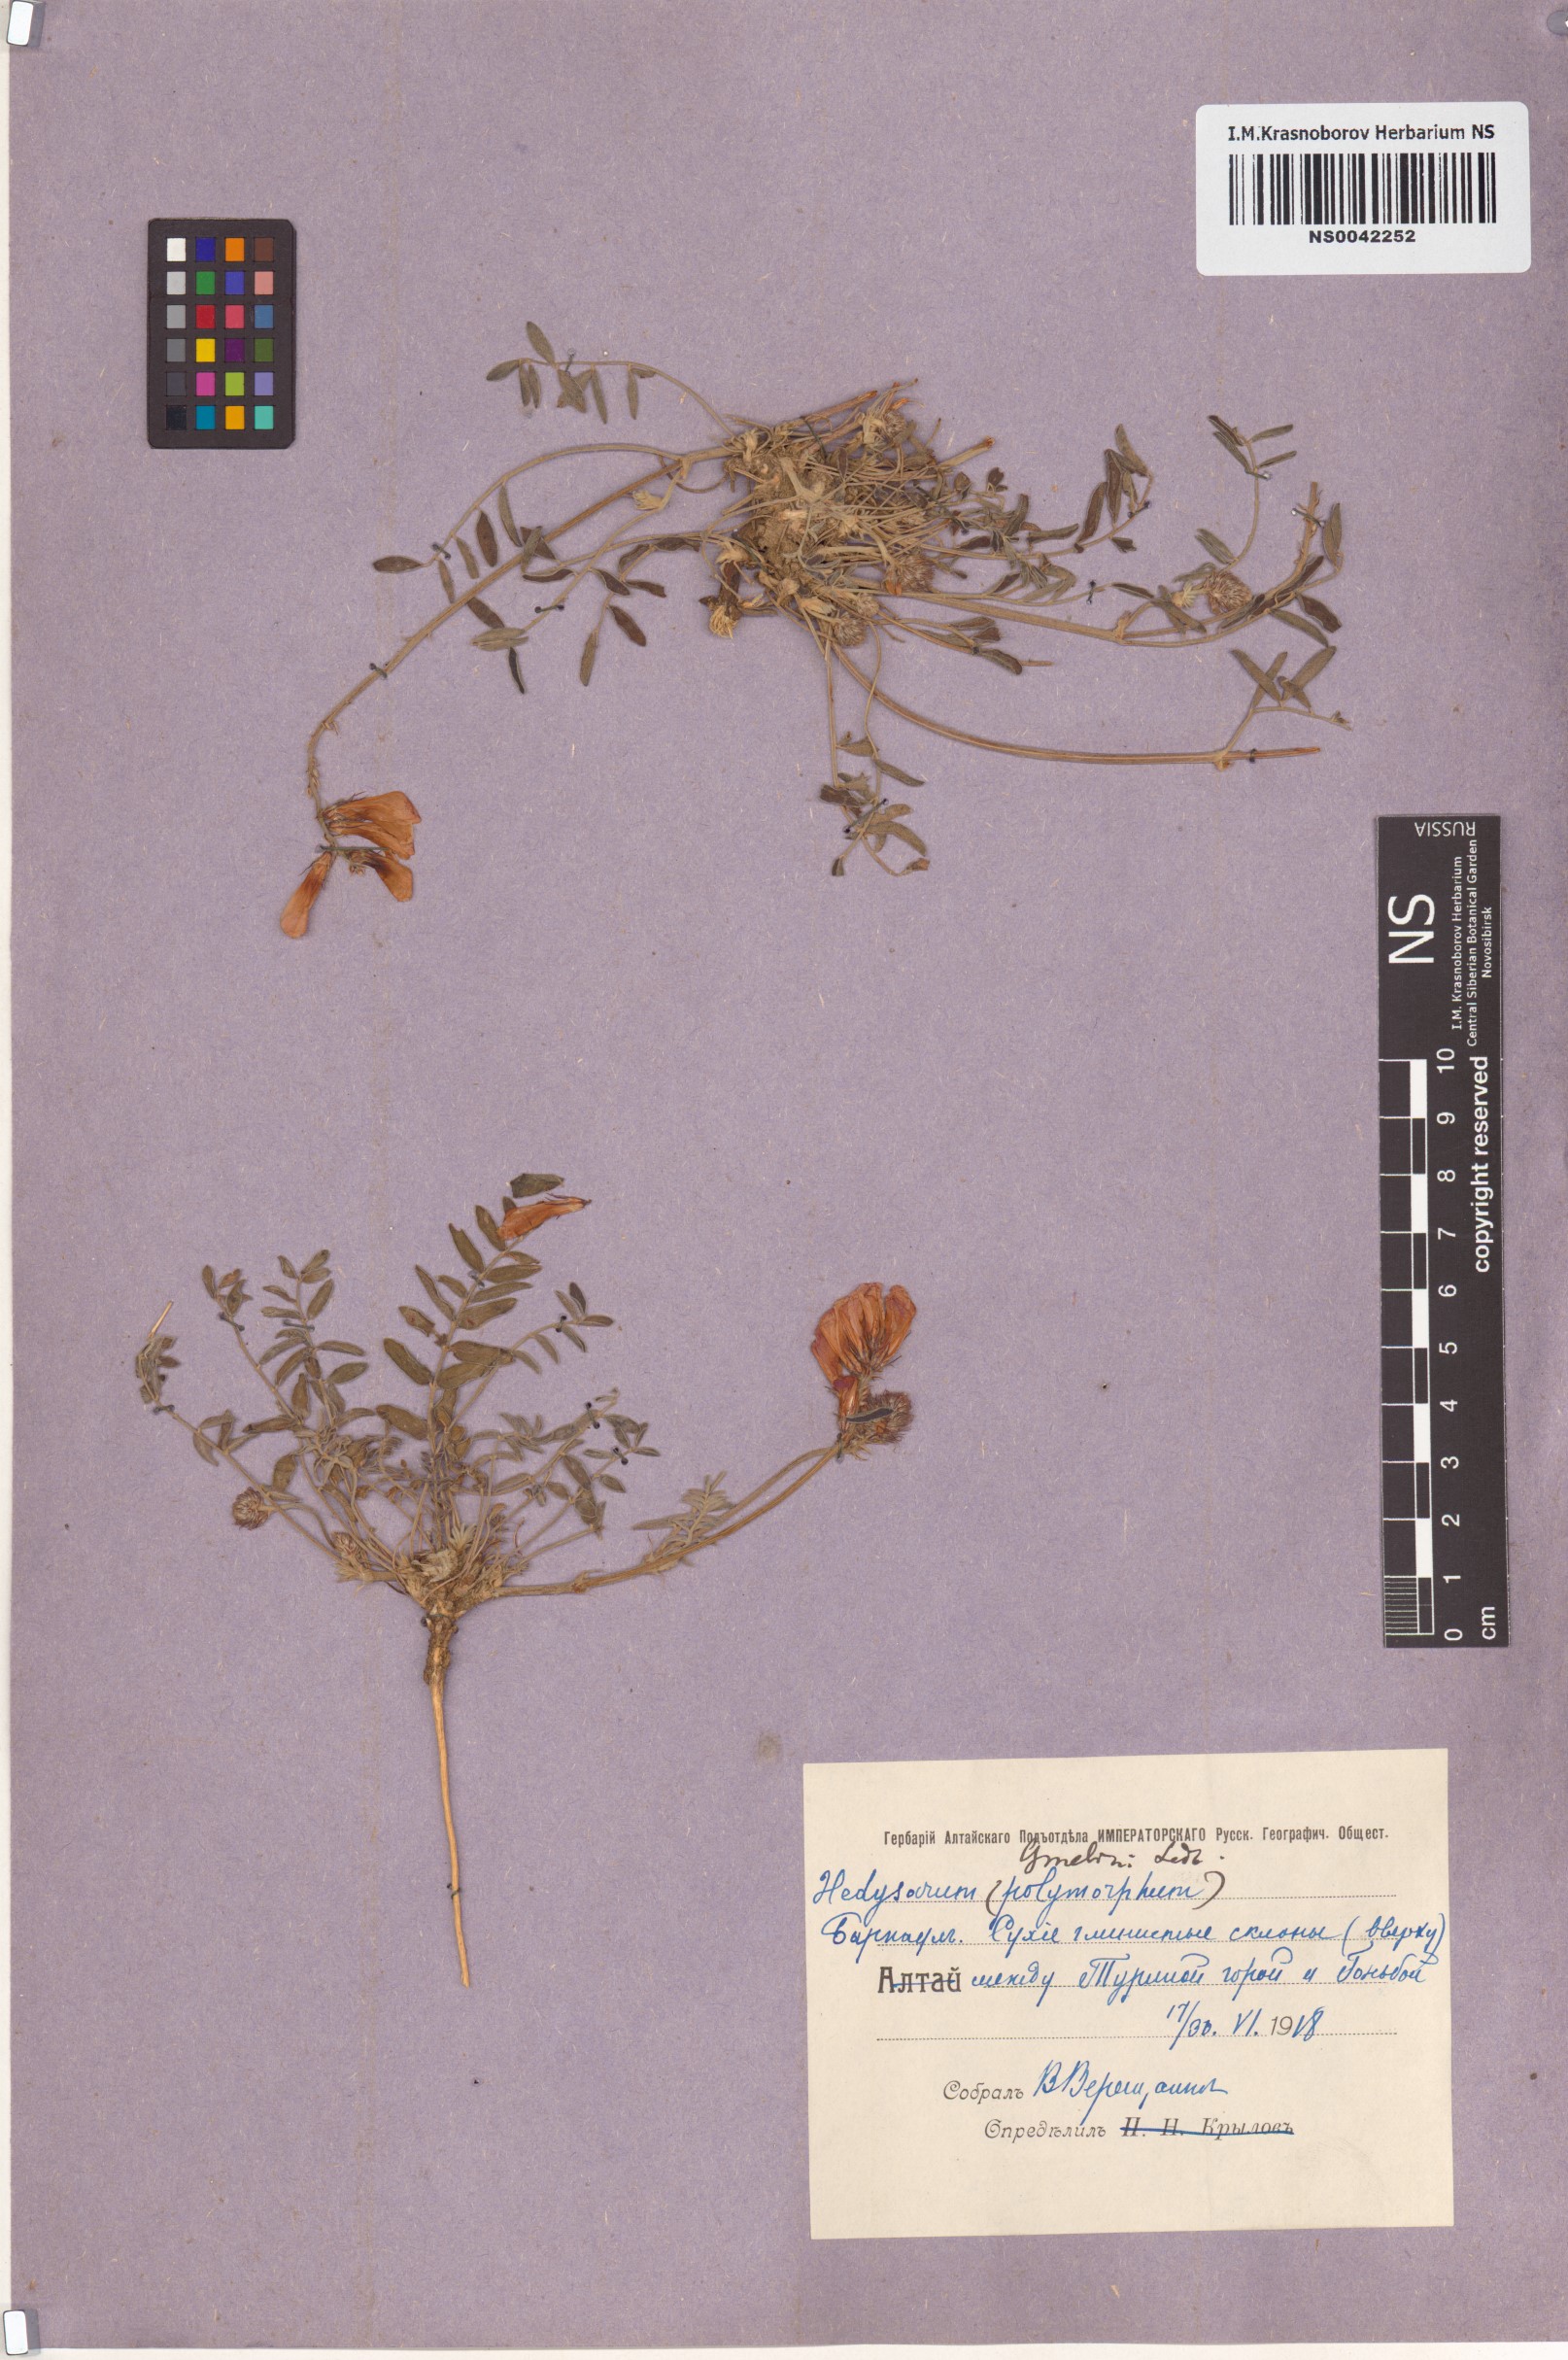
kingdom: Plantae
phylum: Tracheophyta
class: Magnoliopsida
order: Fabales
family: Fabaceae
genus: Hedysarum
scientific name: Hedysarum gmelinii
